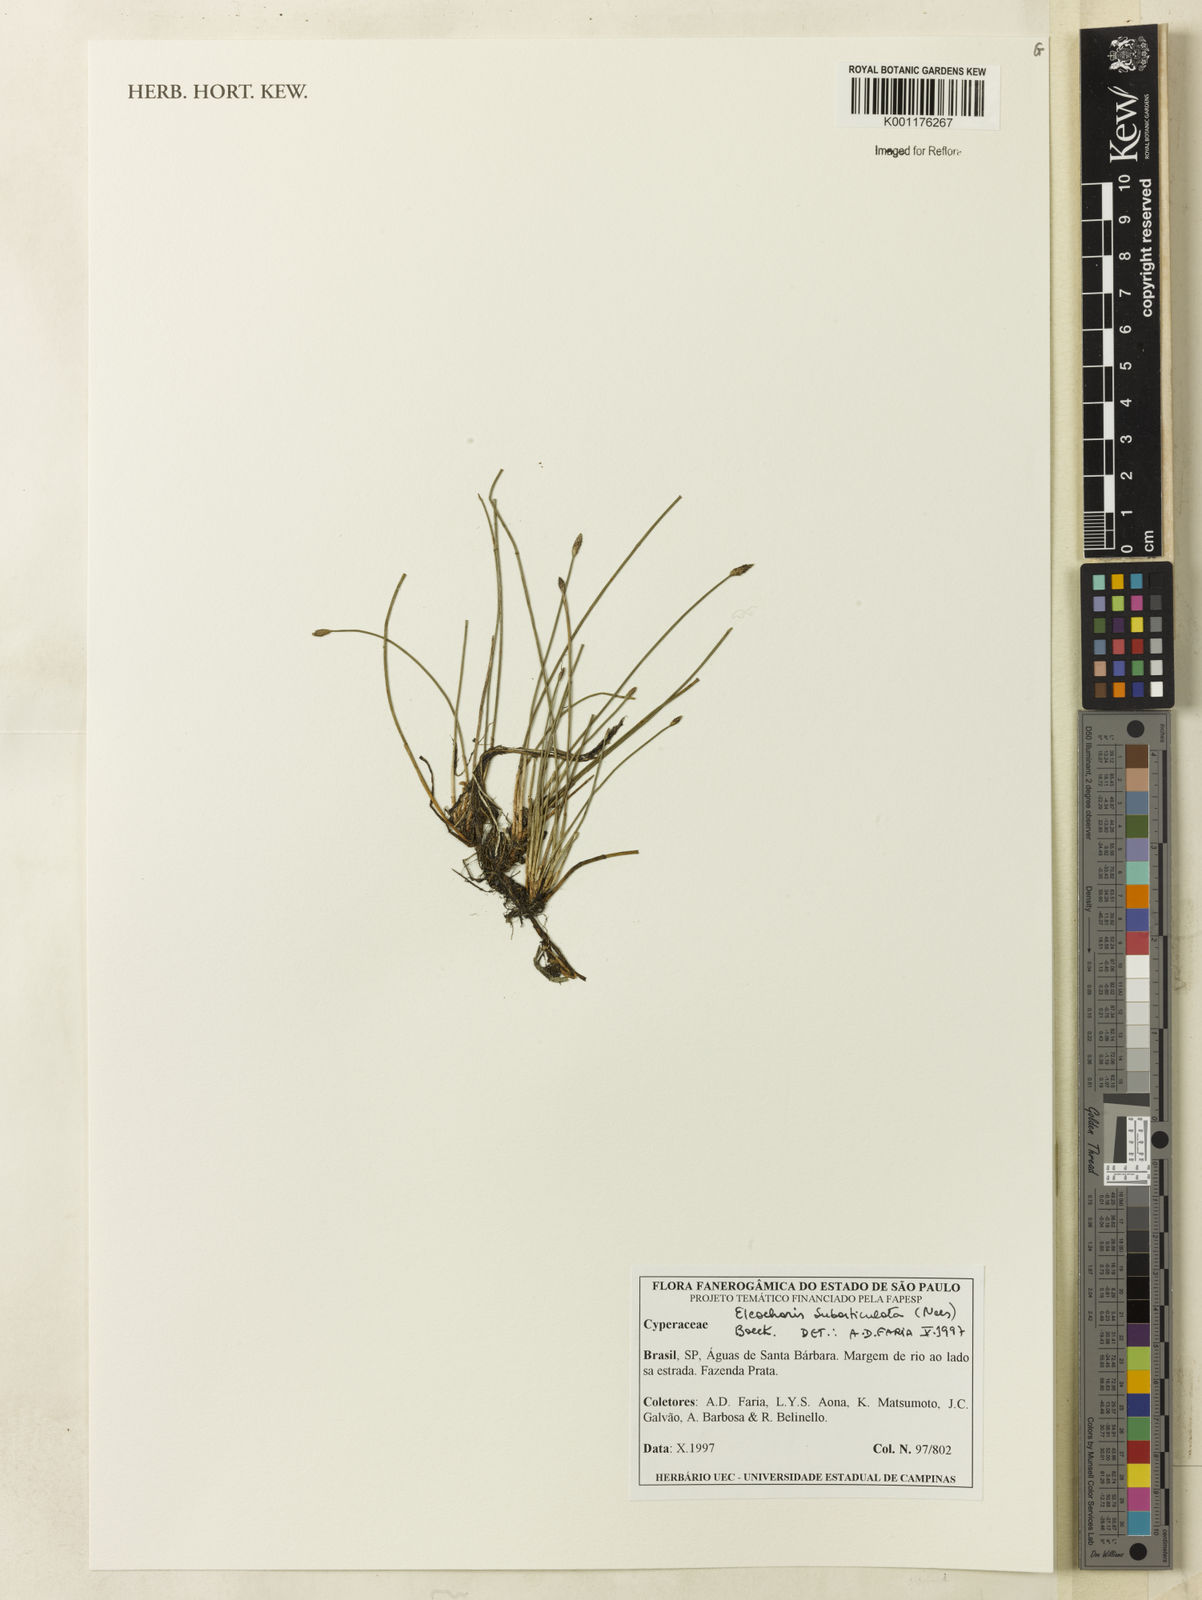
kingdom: Plantae
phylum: Tracheophyta
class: Liliopsida
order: Poales
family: Cyperaceae
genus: Eleocharis
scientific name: Eleocharis subarticulata
